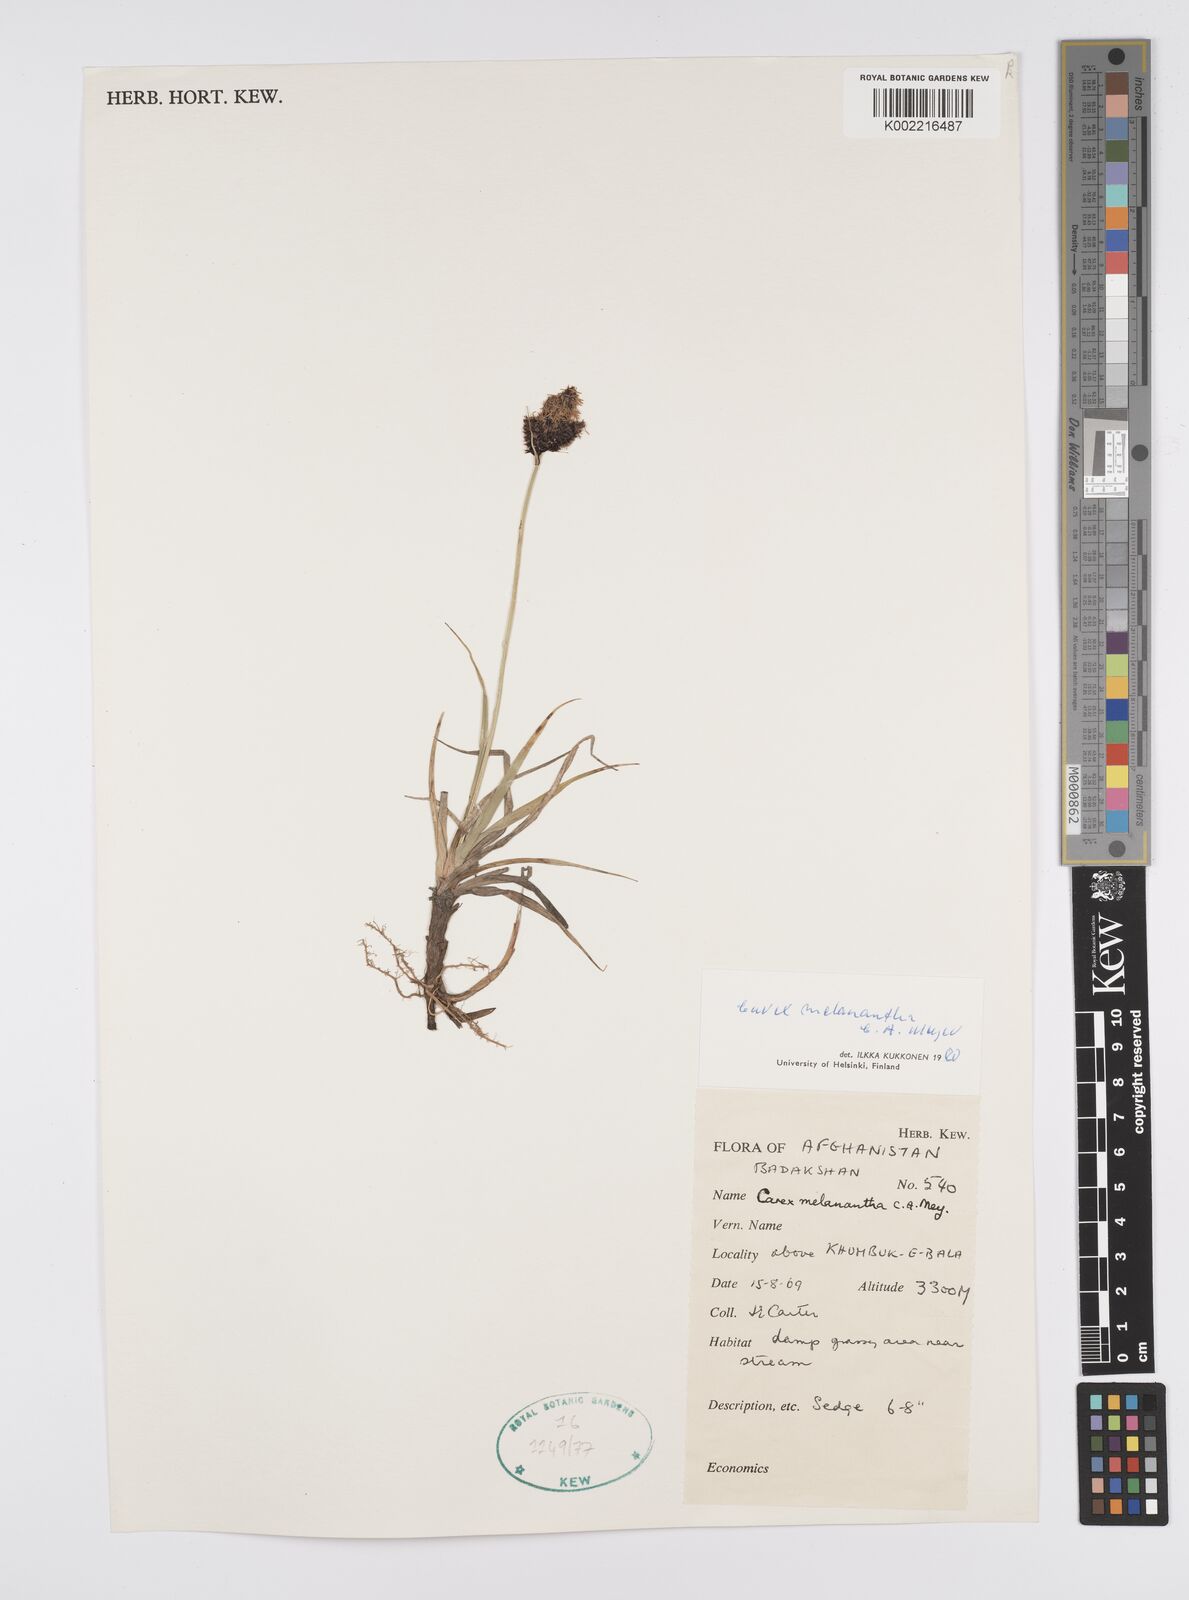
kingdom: Plantae
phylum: Tracheophyta
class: Liliopsida
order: Poales
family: Cyperaceae
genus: Carex
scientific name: Carex melanantha
